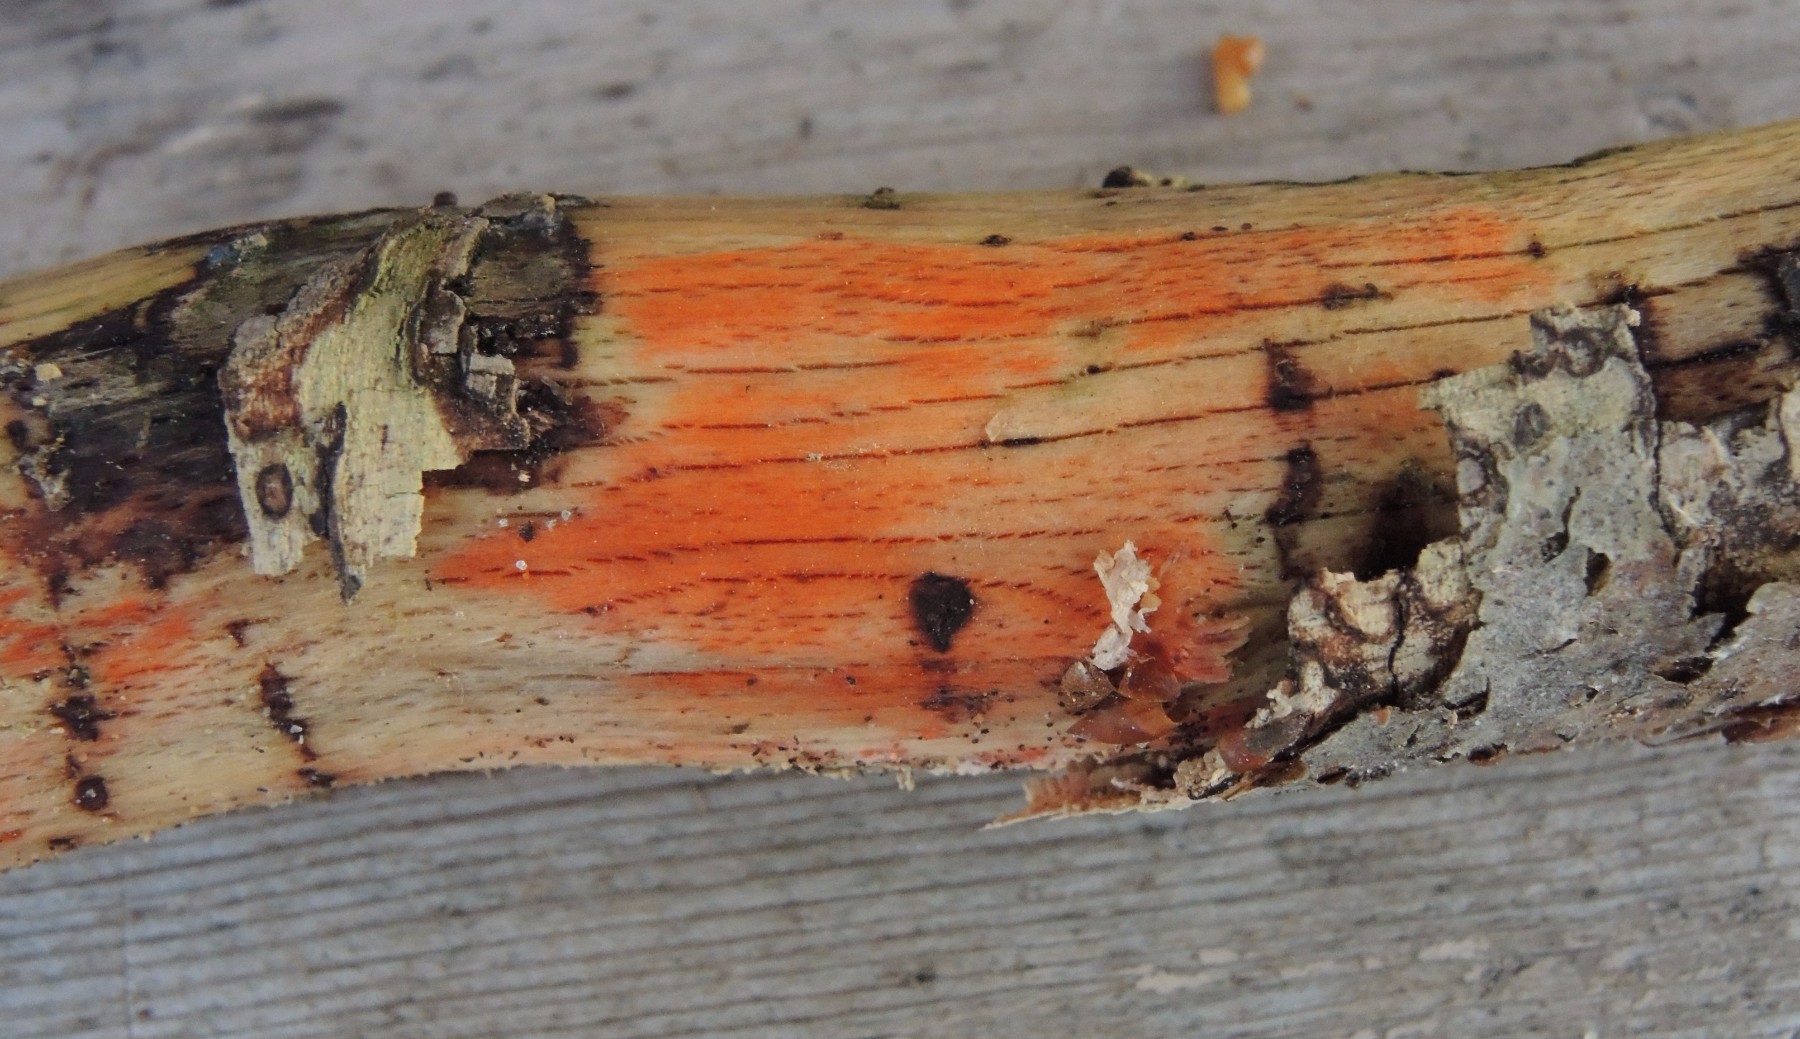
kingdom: Fungi
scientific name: Fungi
